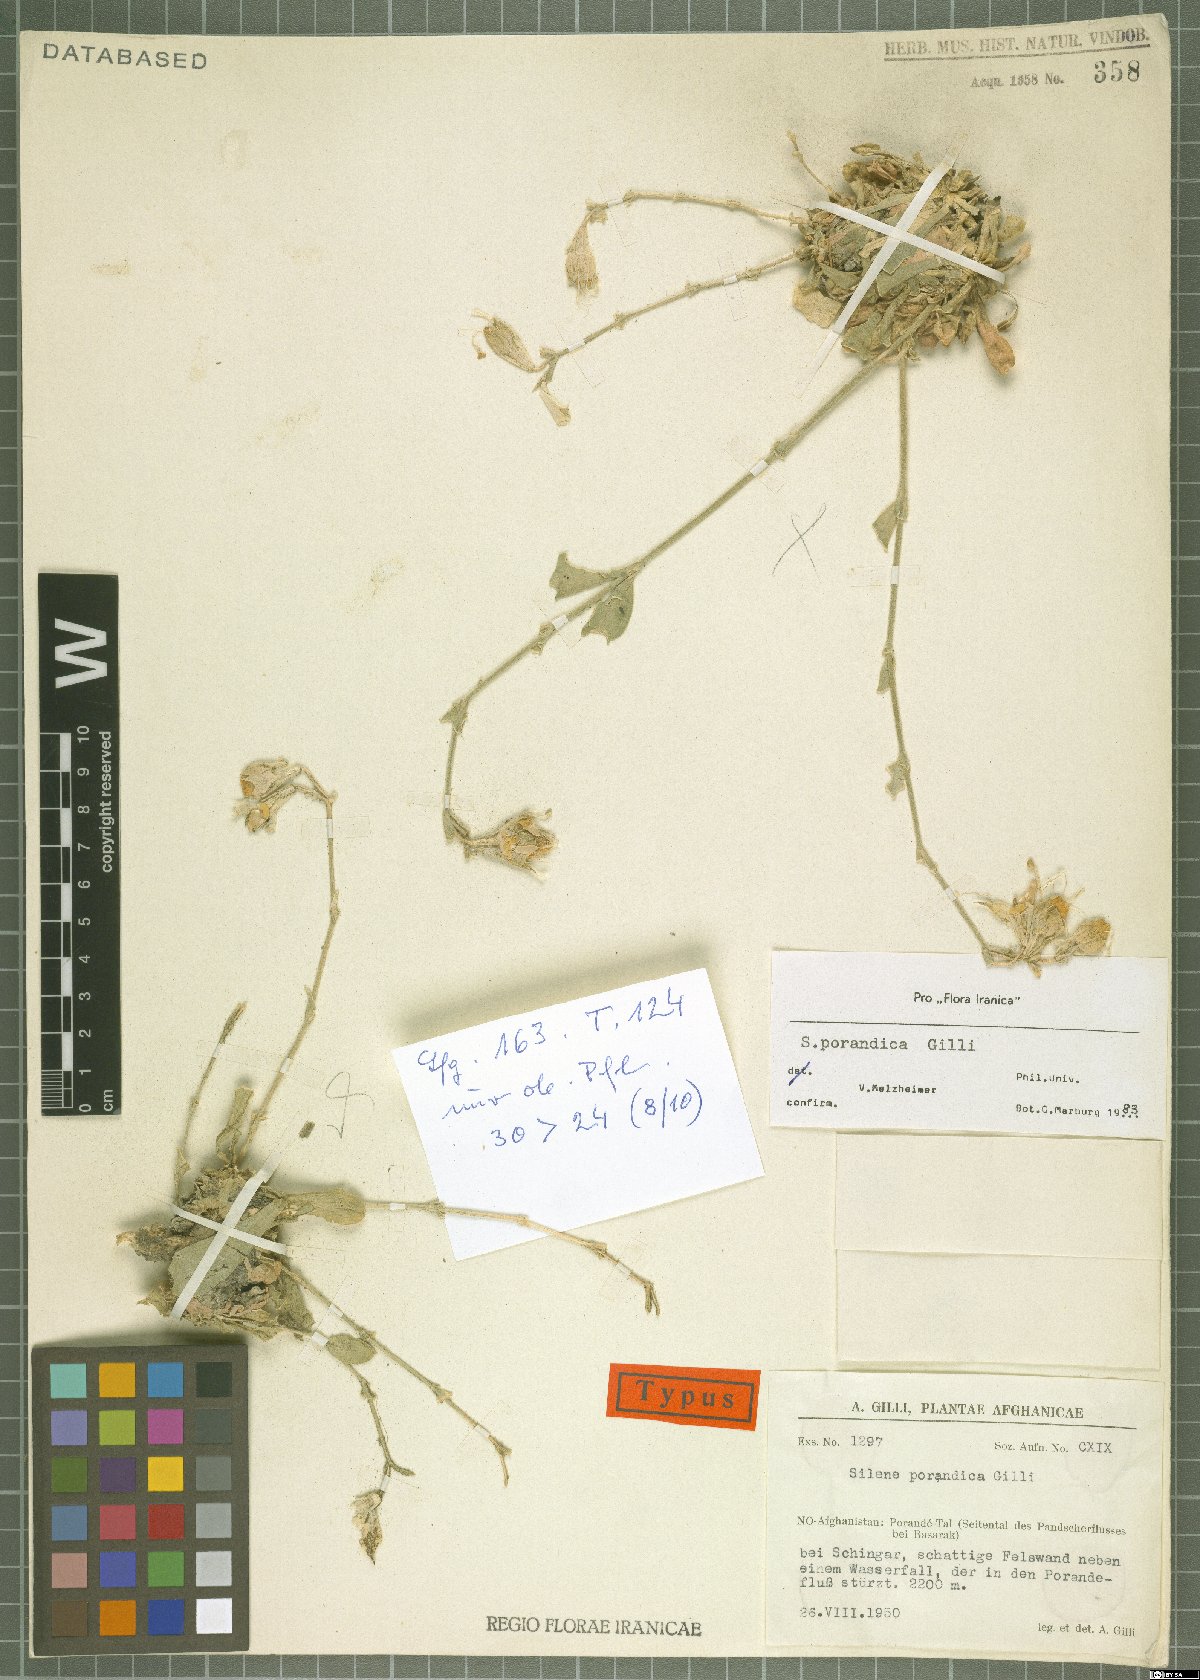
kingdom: Plantae
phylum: Tracheophyta
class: Magnoliopsida
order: Caryophyllales
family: Caryophyllaceae
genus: Silene
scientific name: Silene porandica
